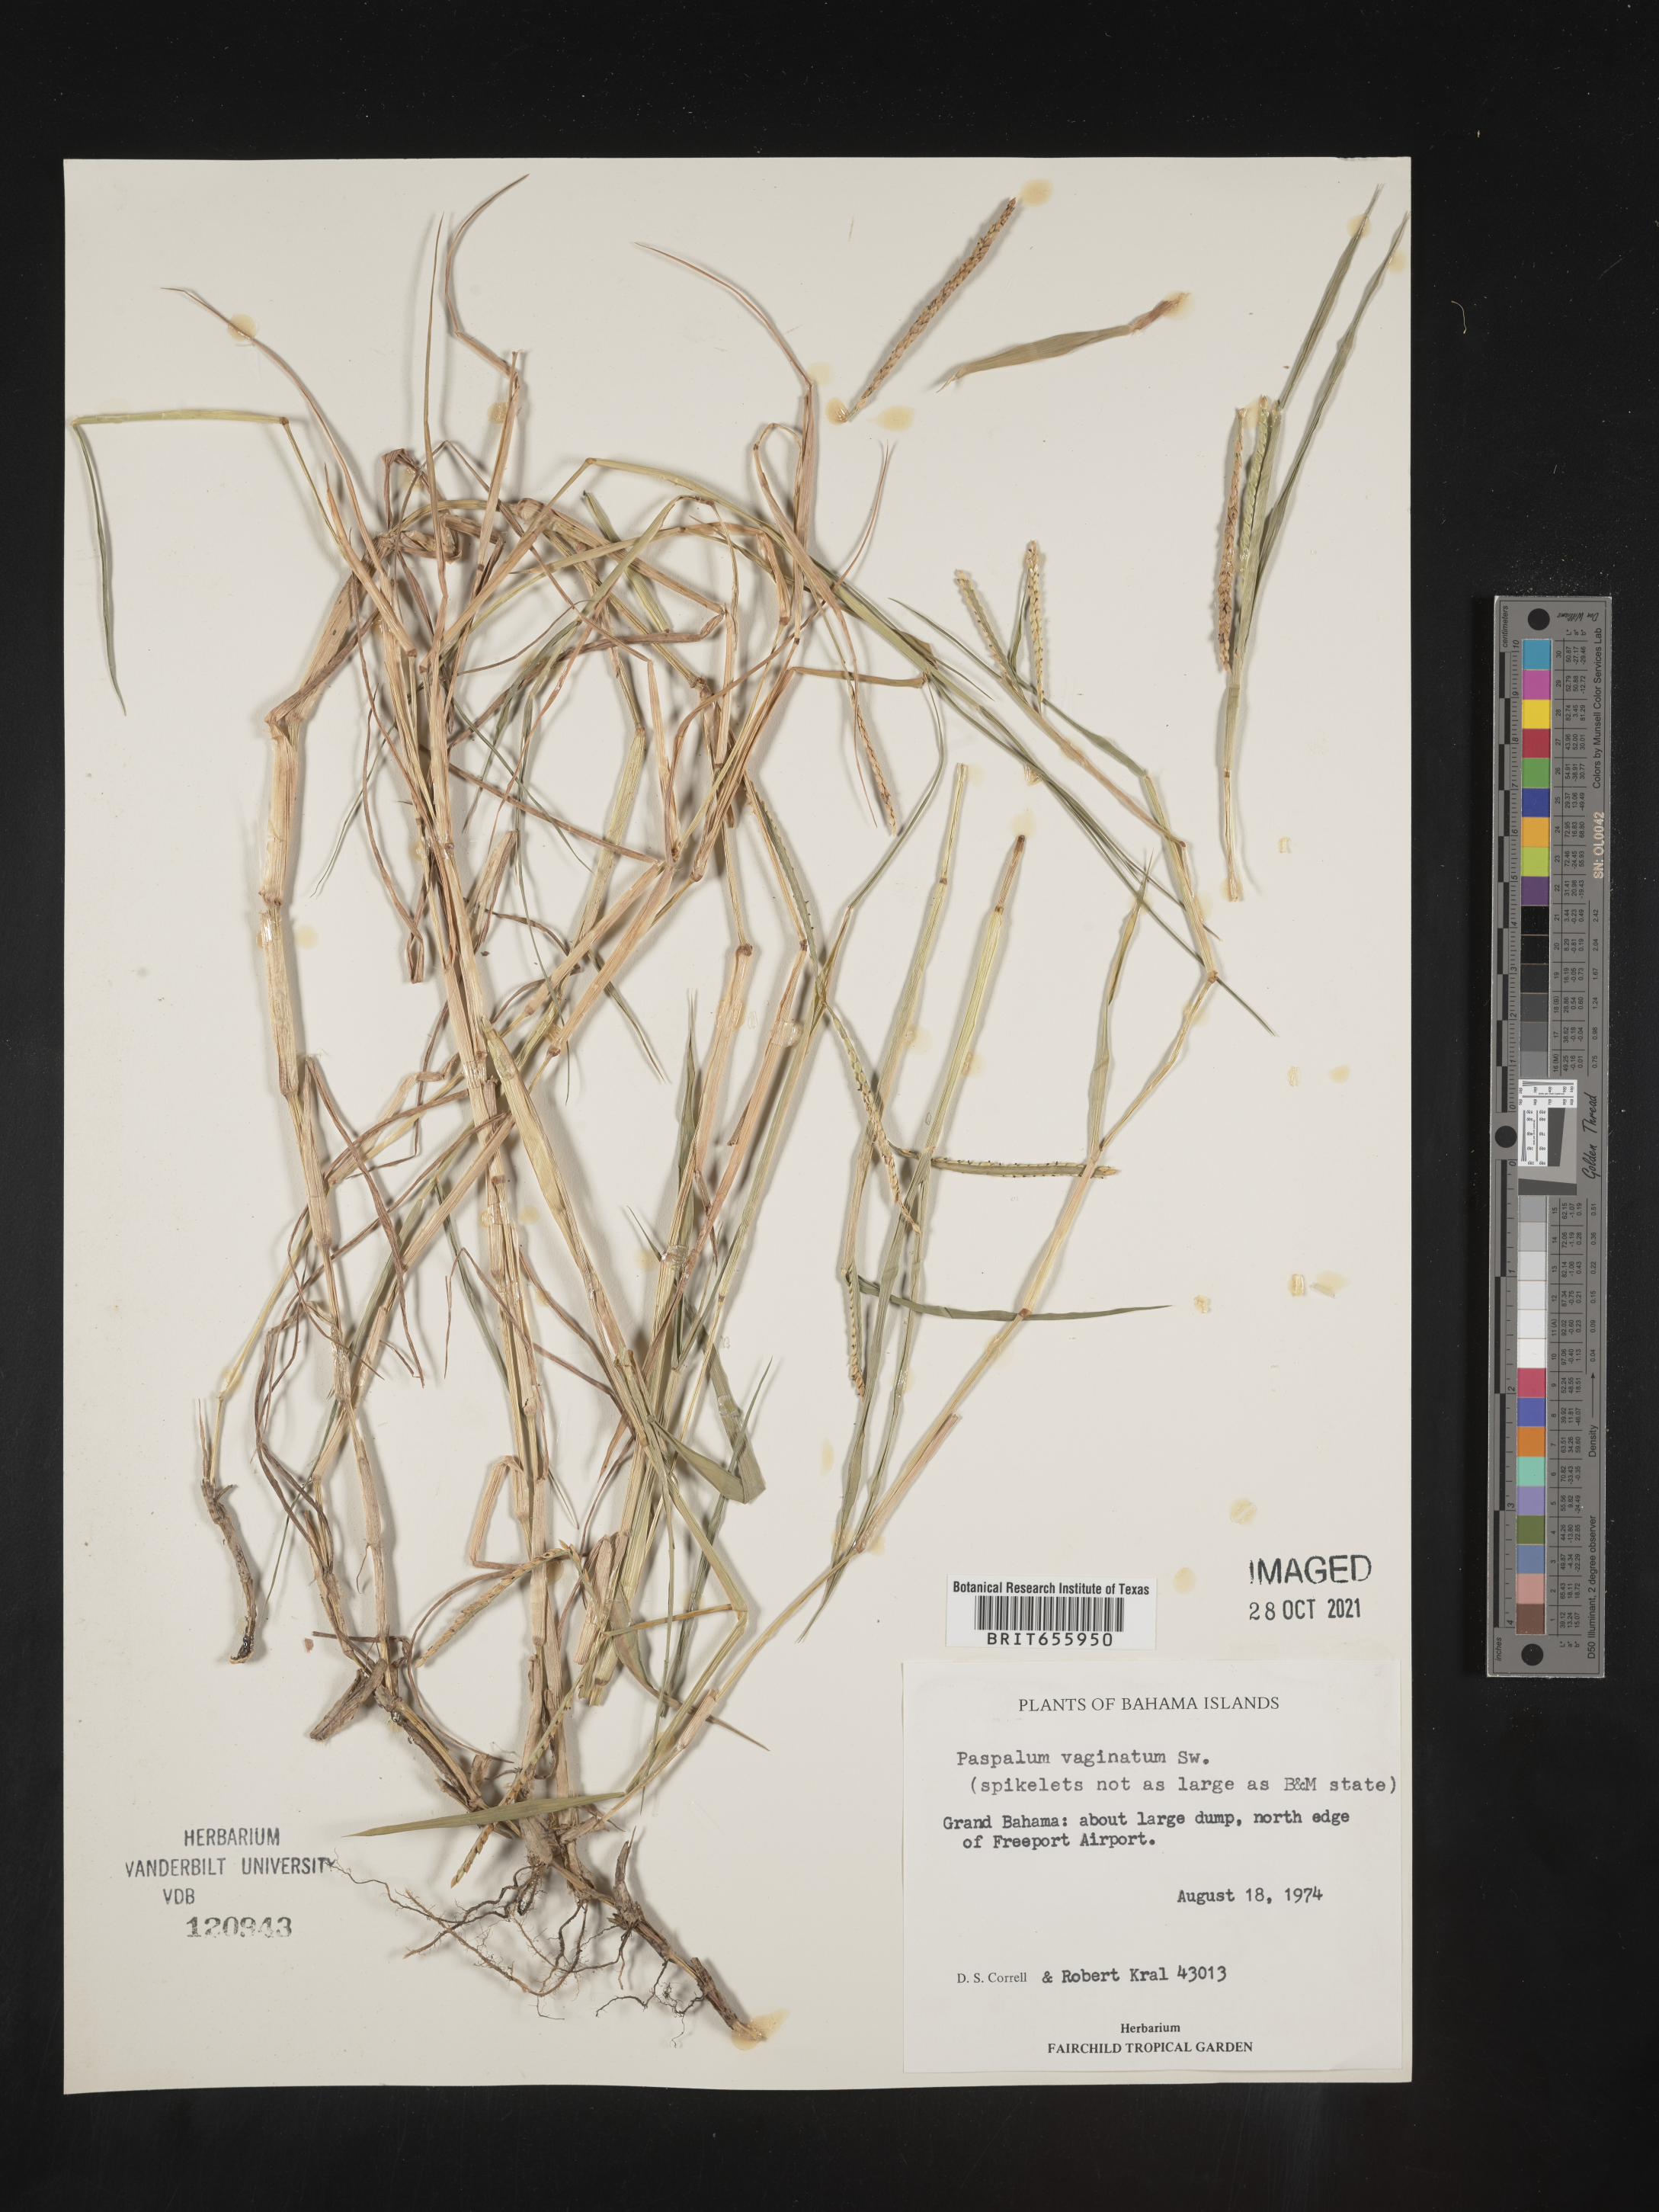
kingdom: Plantae
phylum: Tracheophyta
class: Liliopsida
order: Poales
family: Poaceae
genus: Paspalum
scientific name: Paspalum
